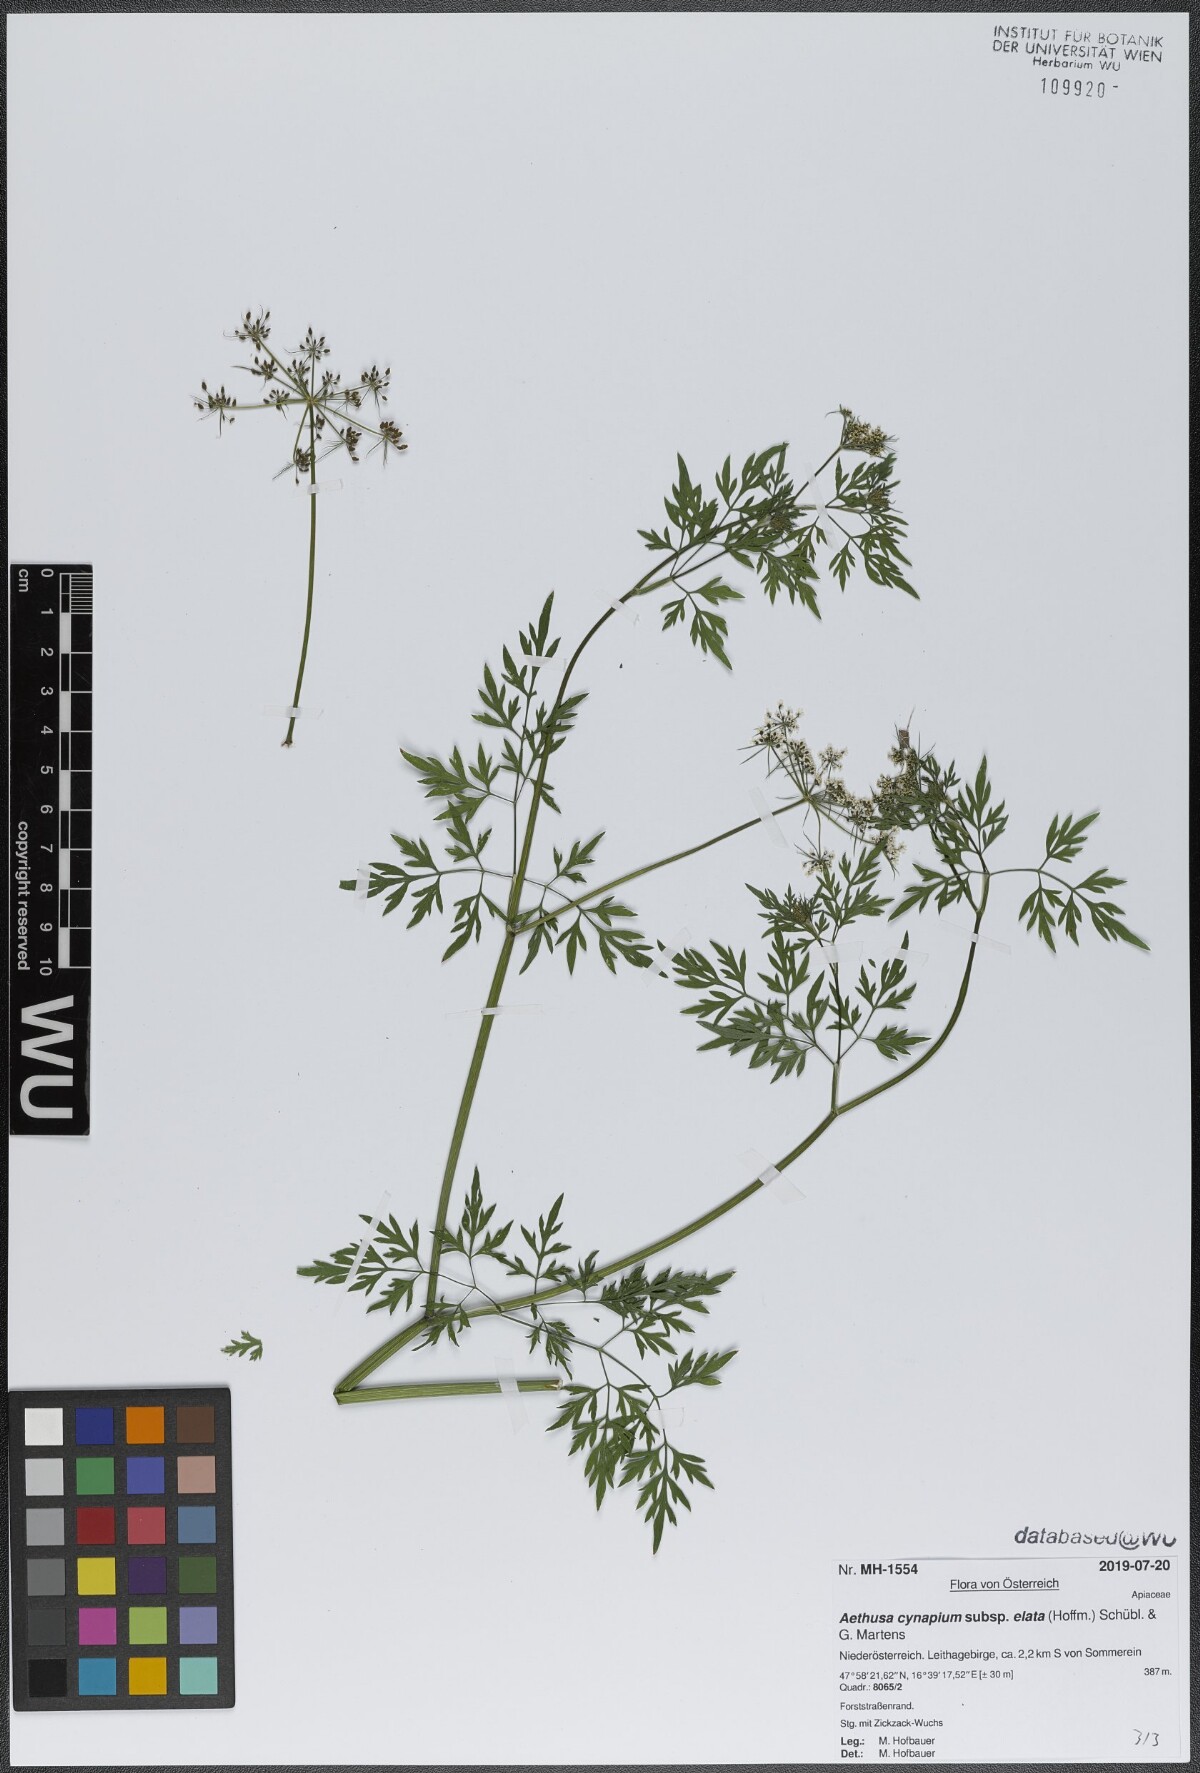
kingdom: Plantae
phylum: Tracheophyta
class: Magnoliopsida
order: Apiales
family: Apiaceae
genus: Aethusa
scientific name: Aethusa cynapium
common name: Fool's parsley
